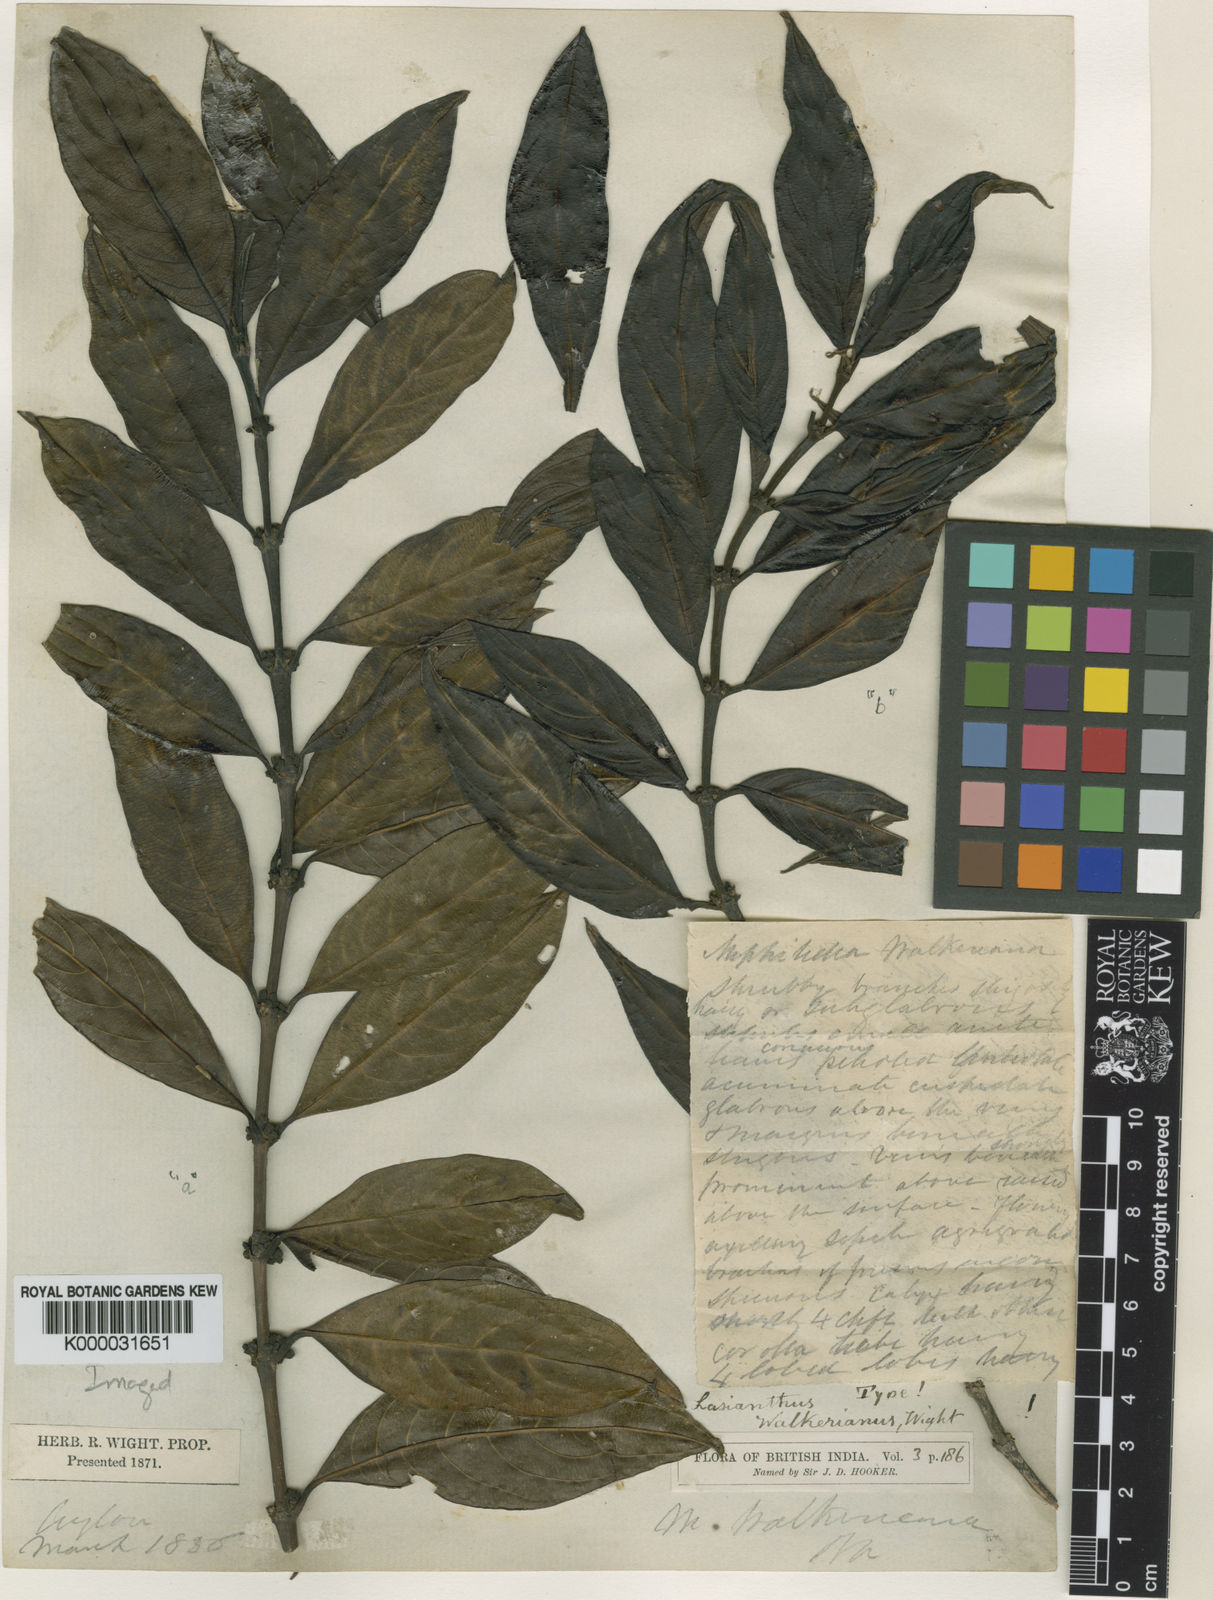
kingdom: Plantae
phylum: Tracheophyta
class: Magnoliopsida
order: Gentianales
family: Rubiaceae
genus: Lasianthus
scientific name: Lasianthus foetulentus
